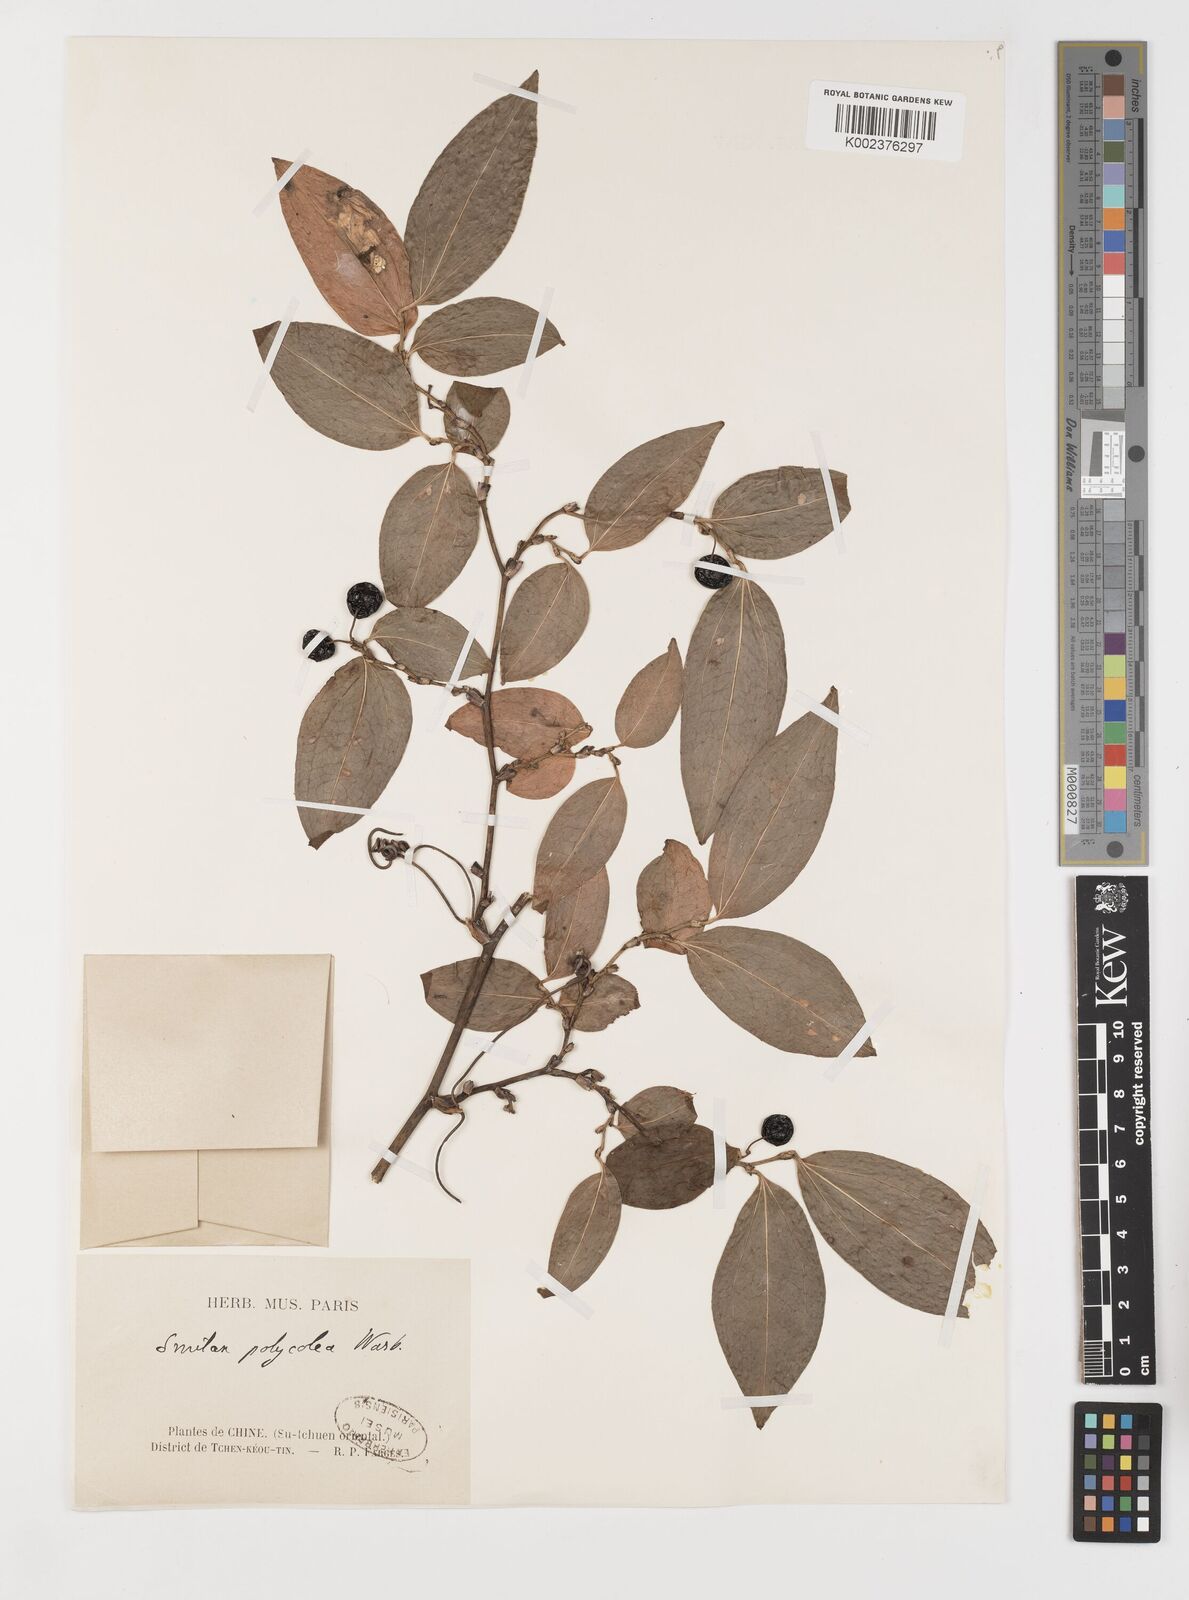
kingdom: Plantae
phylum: Tracheophyta
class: Liliopsida
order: Liliales
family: Smilacaceae
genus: Smilax
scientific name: Smilax polycolea
